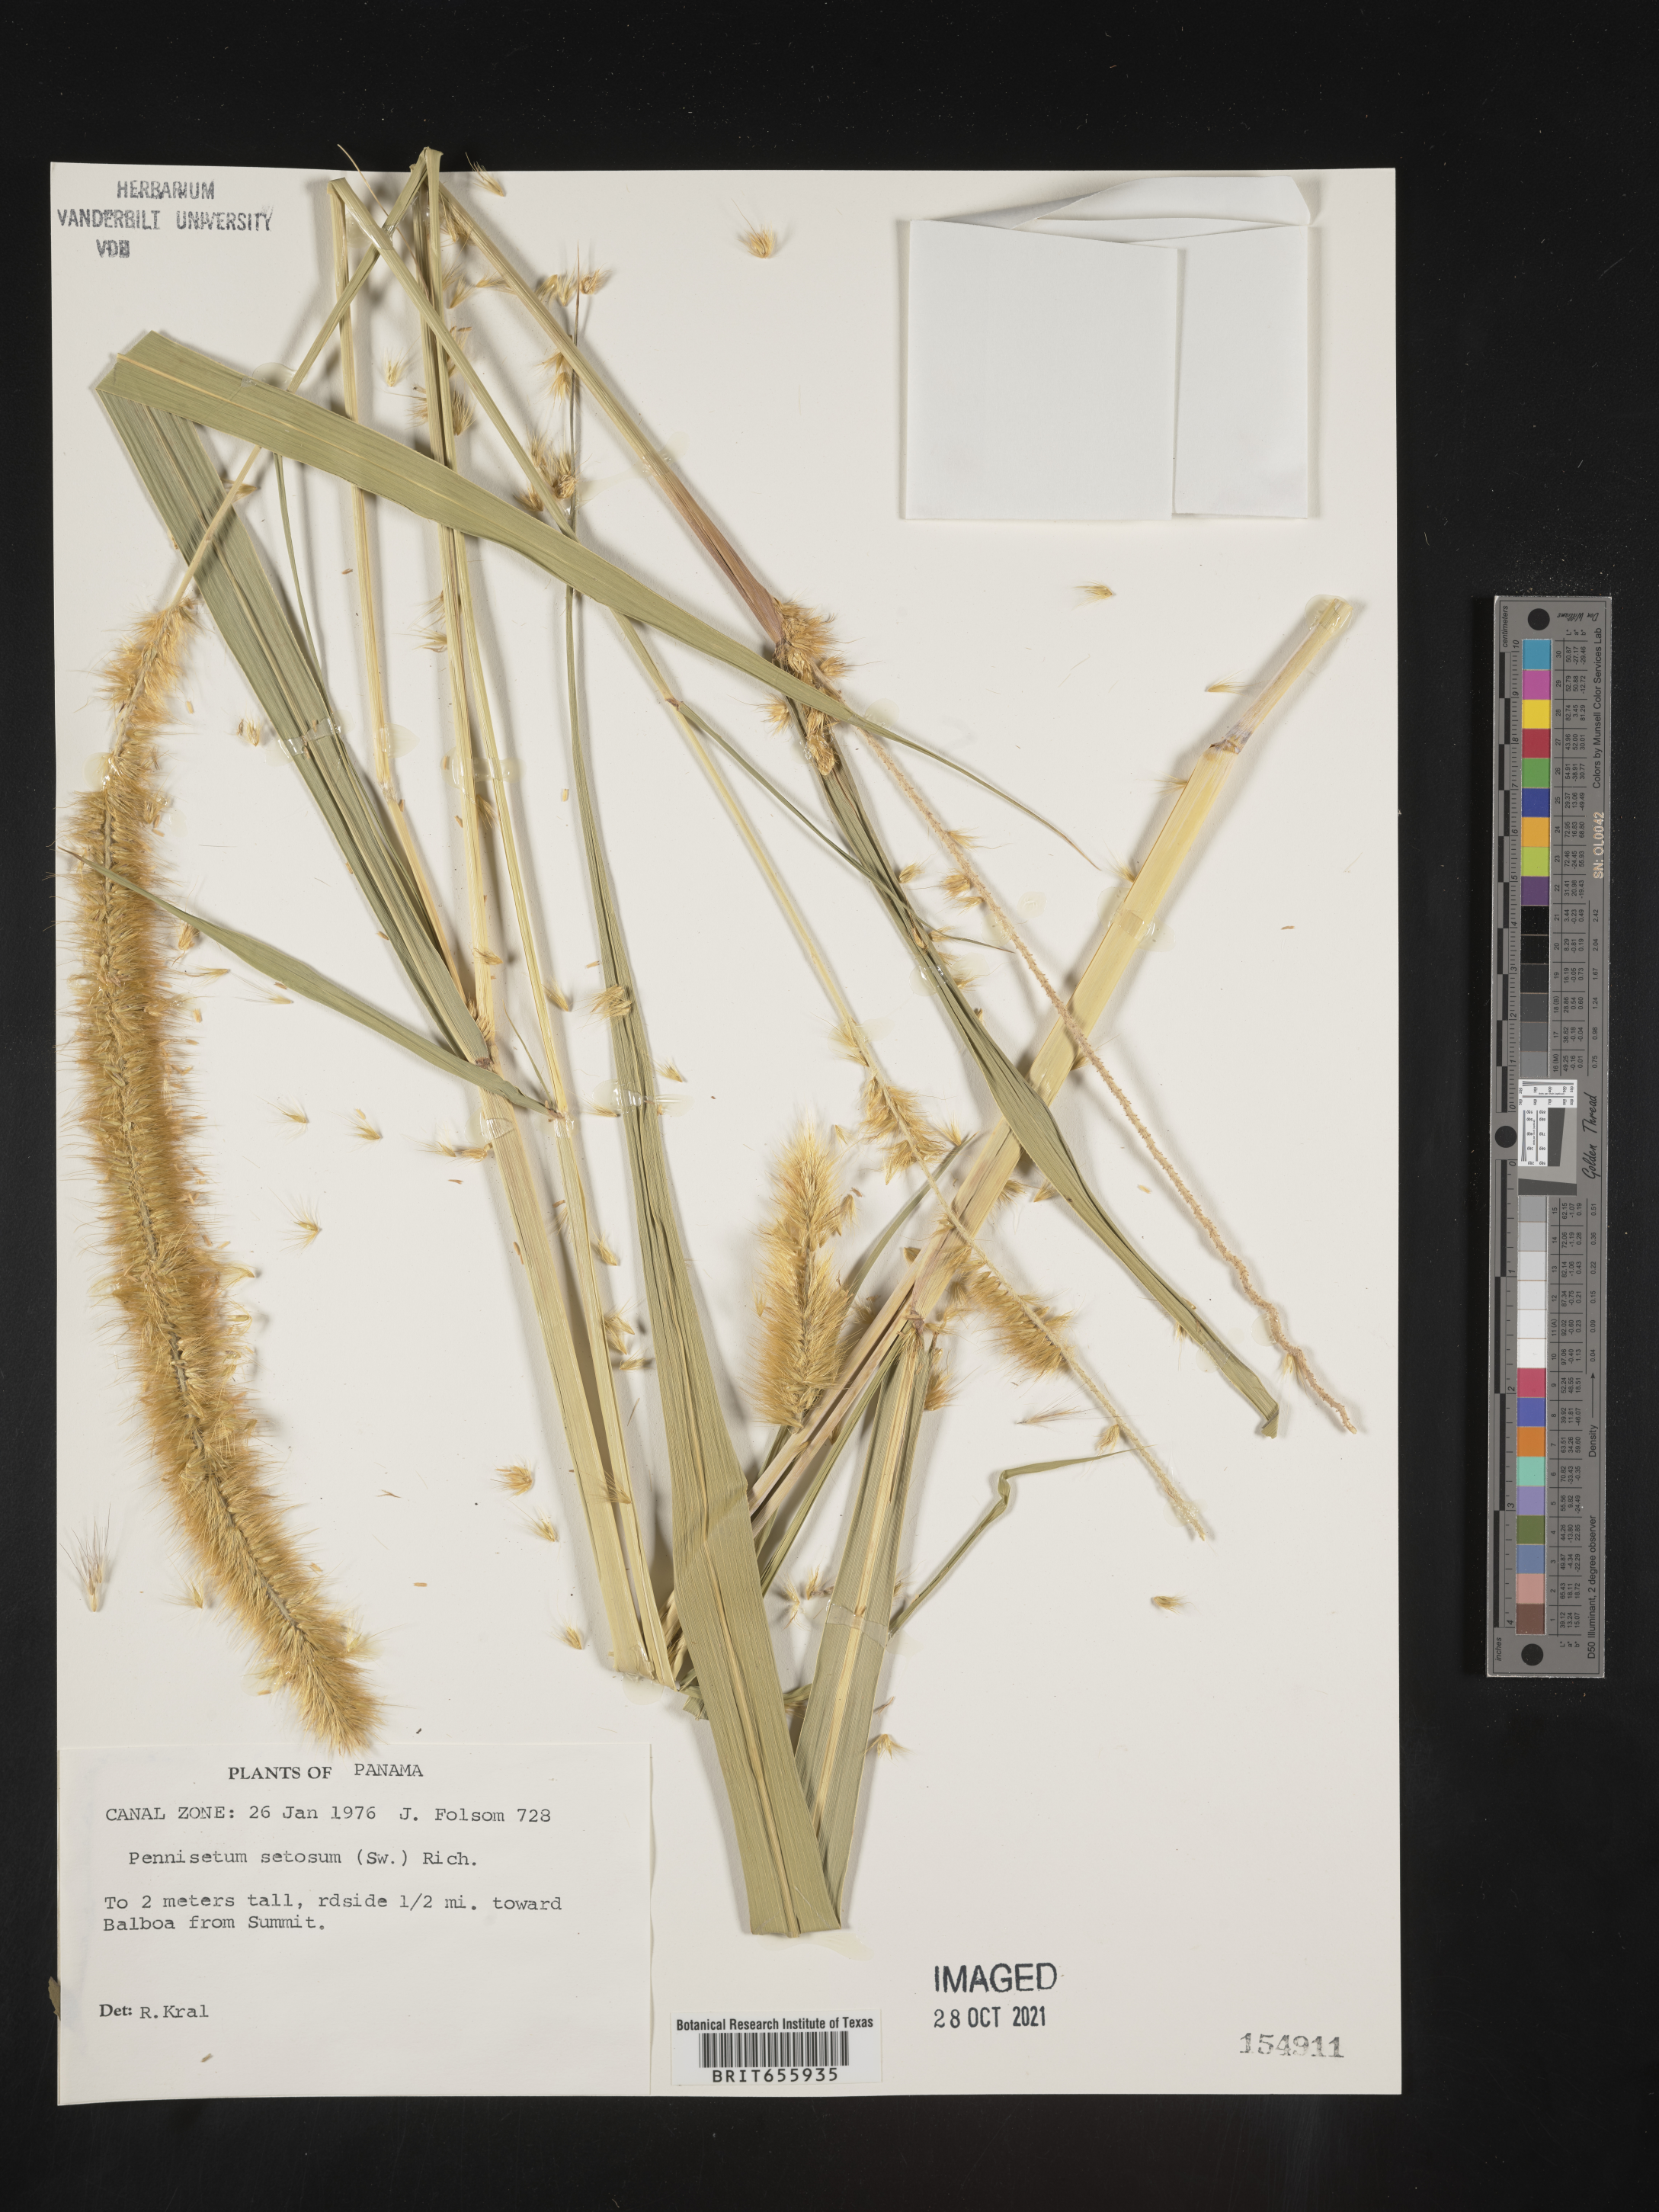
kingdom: Plantae
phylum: Tracheophyta
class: Liliopsida
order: Poales
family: Poaceae
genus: Cenchrus
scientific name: Cenchrus Pennisetum spec
